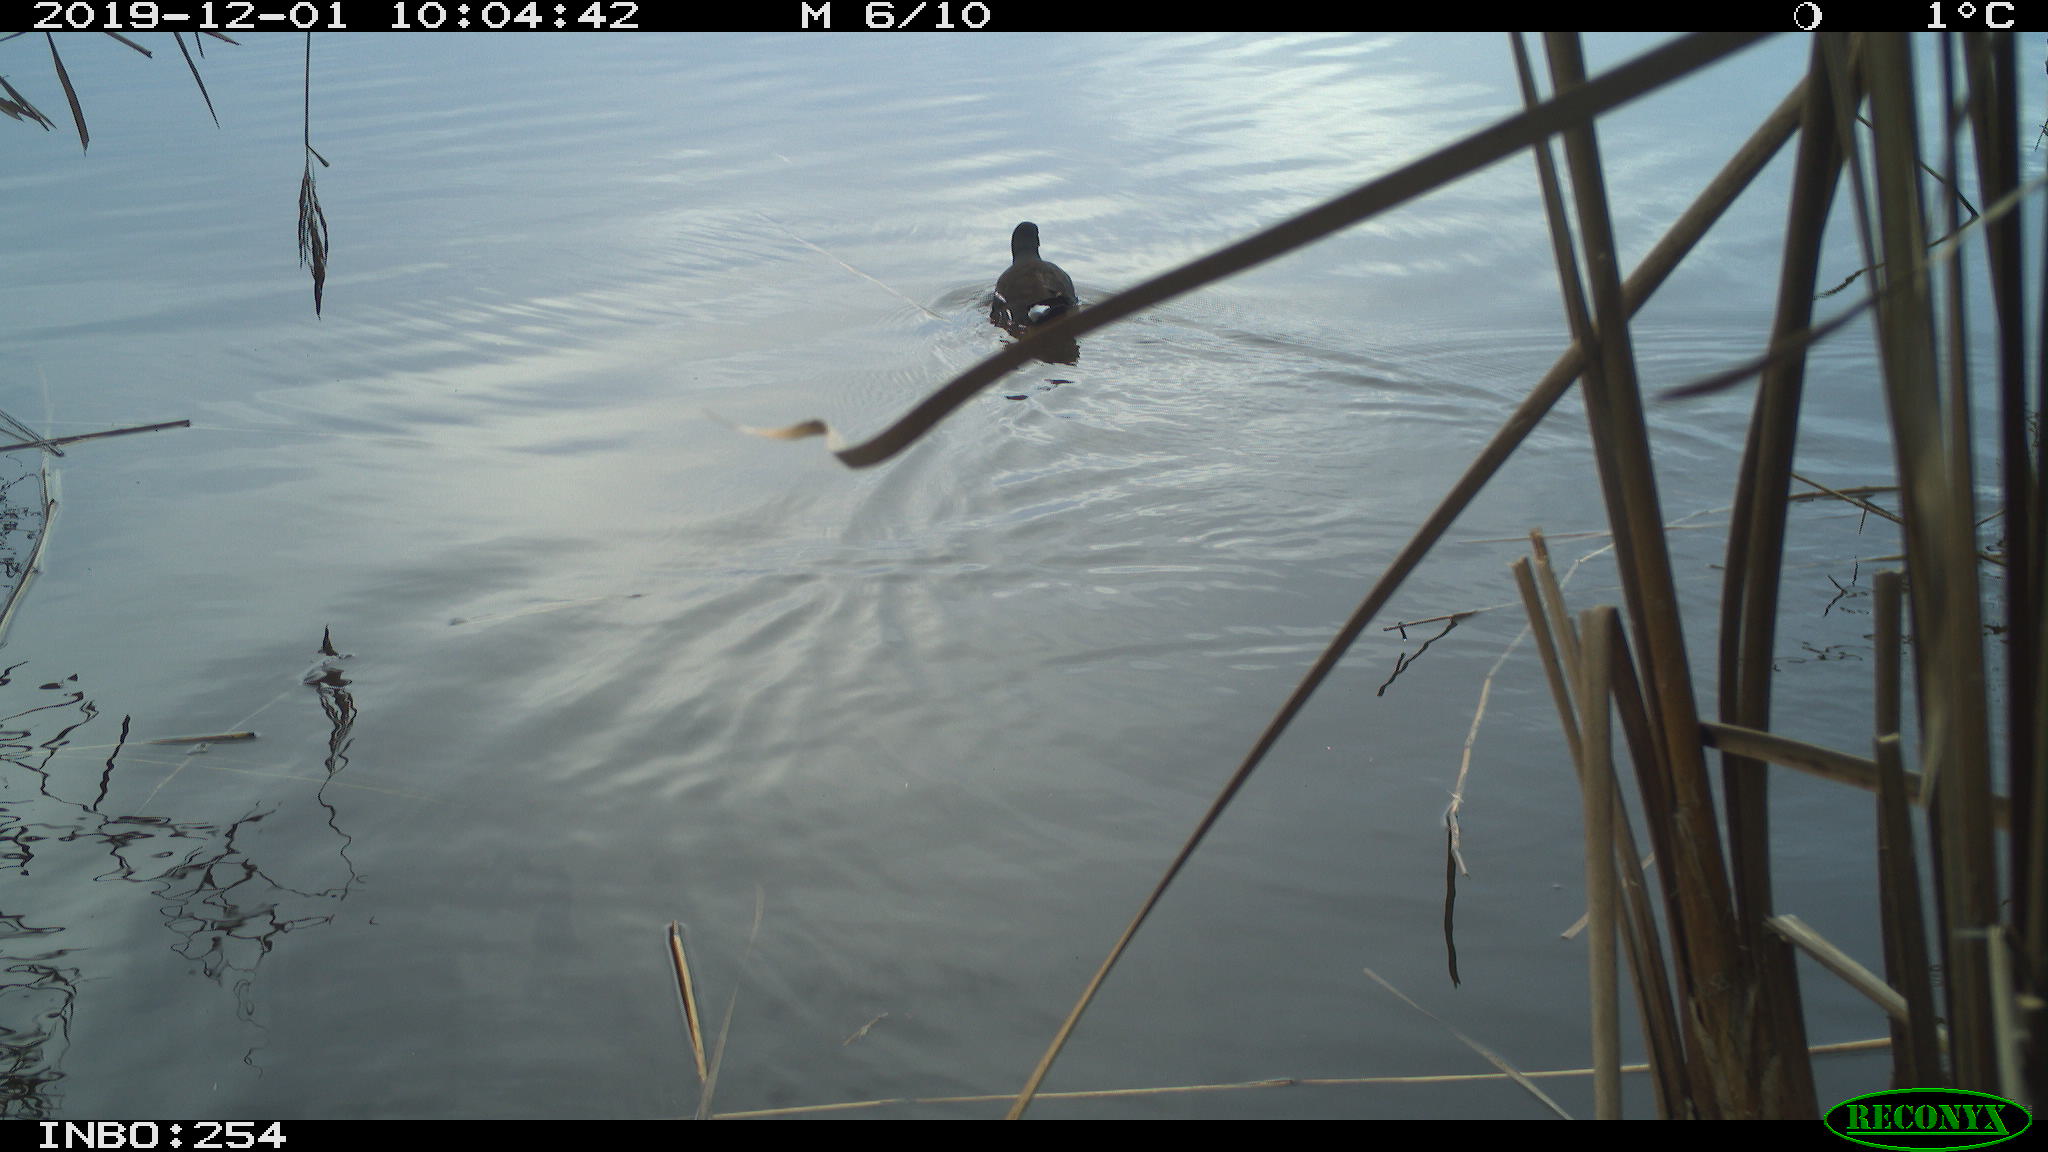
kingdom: Animalia
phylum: Chordata
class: Aves
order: Gruiformes
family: Rallidae
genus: Gallinula
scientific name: Gallinula chloropus
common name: Common moorhen
